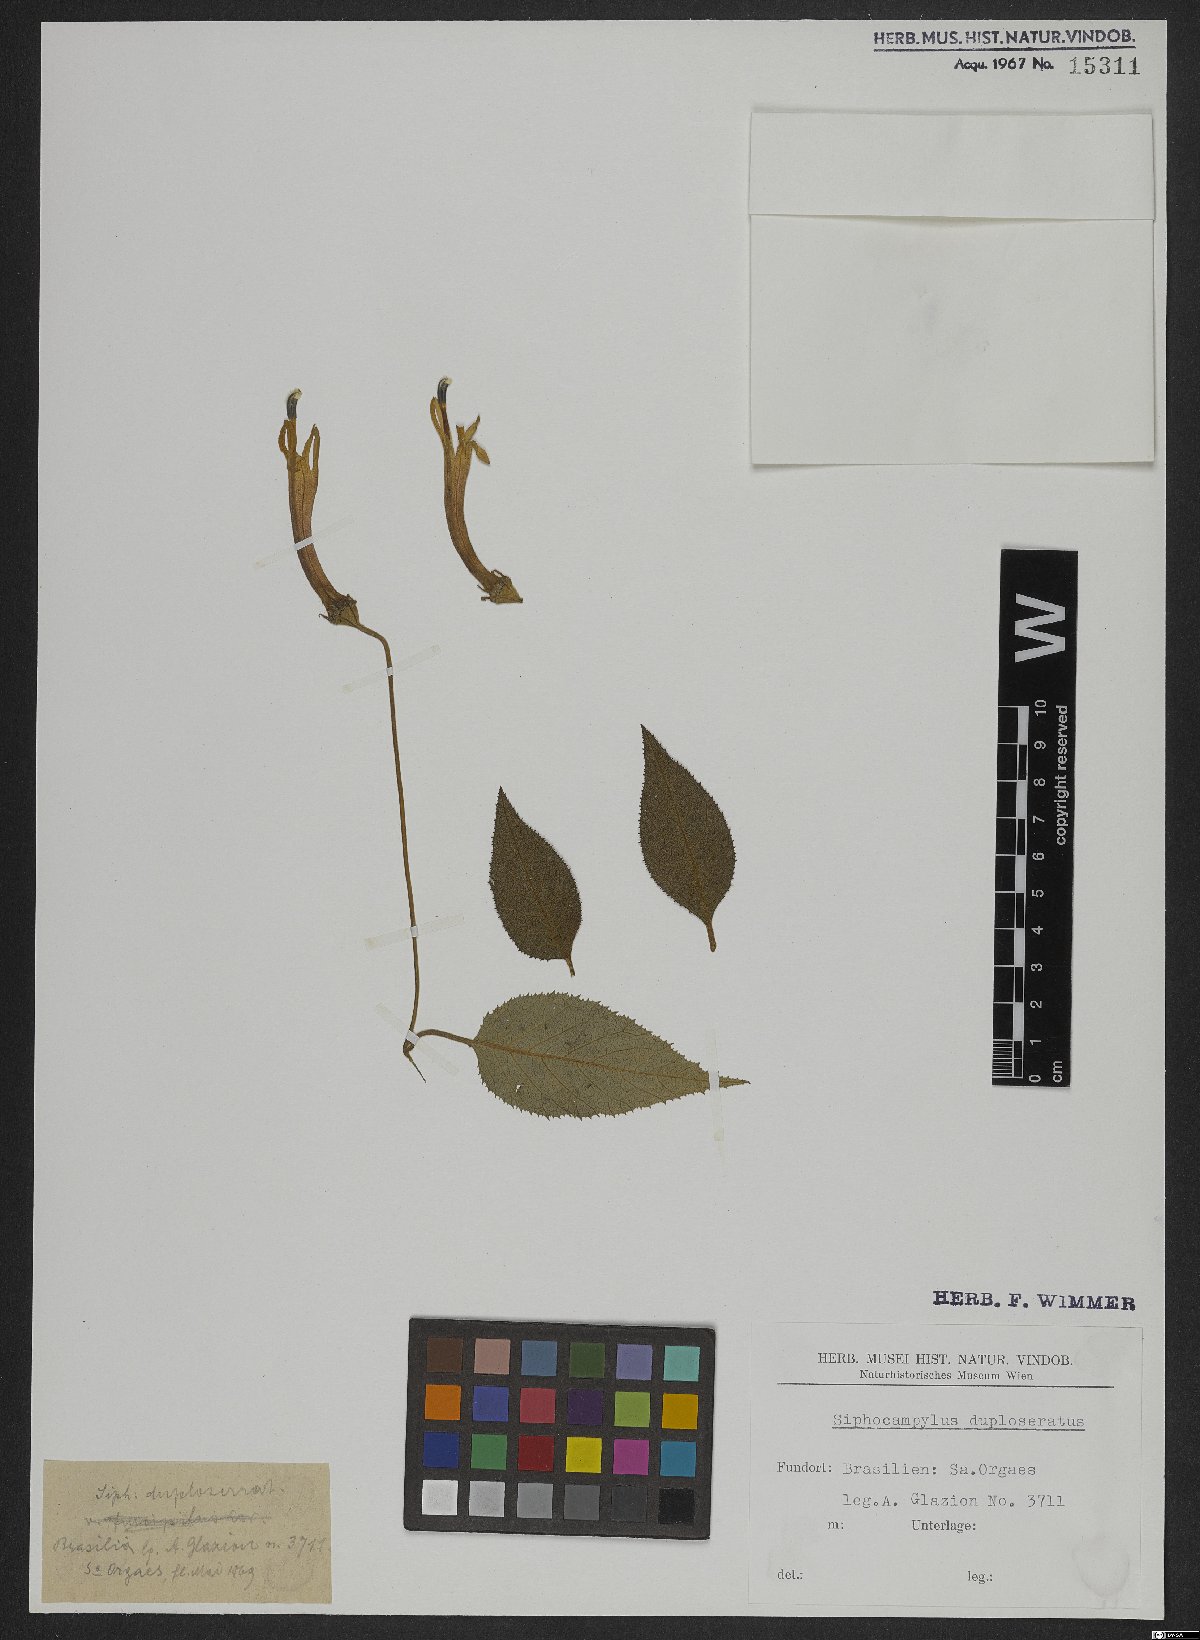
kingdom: Plantae
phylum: Tracheophyta
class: Magnoliopsida
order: Asterales
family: Campanulaceae
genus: Siphocampylus
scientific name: Siphocampylus duploserratus
